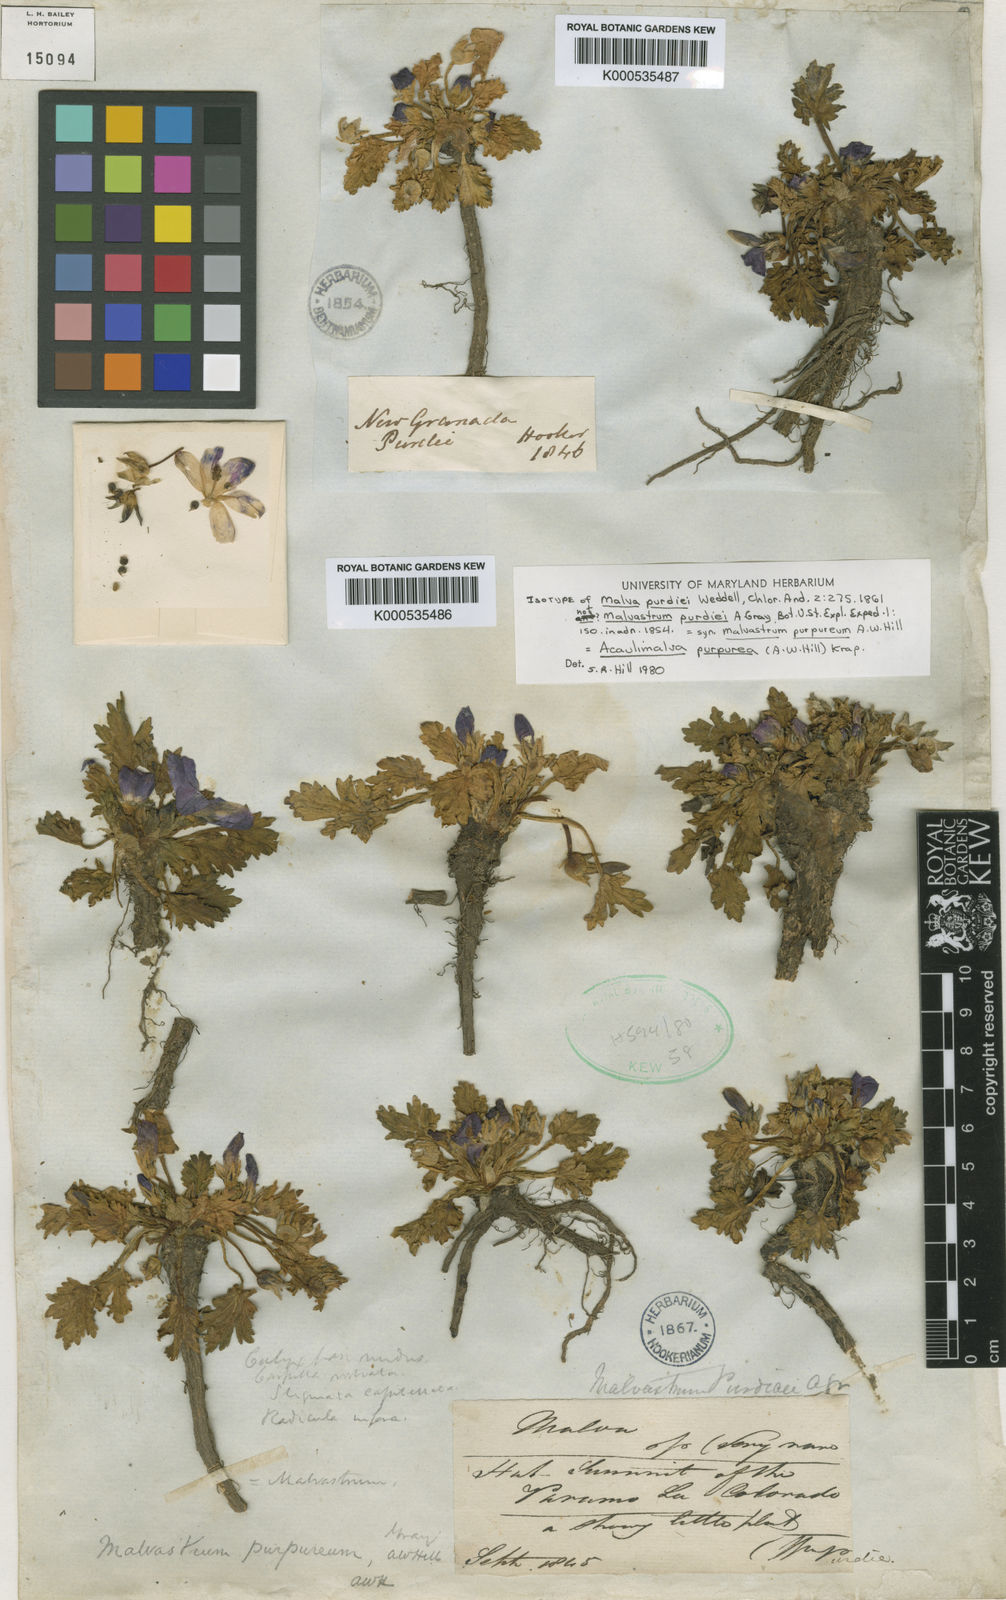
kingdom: Plantae
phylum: Tracheophyta
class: Magnoliopsida
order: Malvales
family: Malvaceae
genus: Acaulimalva
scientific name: Acaulimalva purpurea
